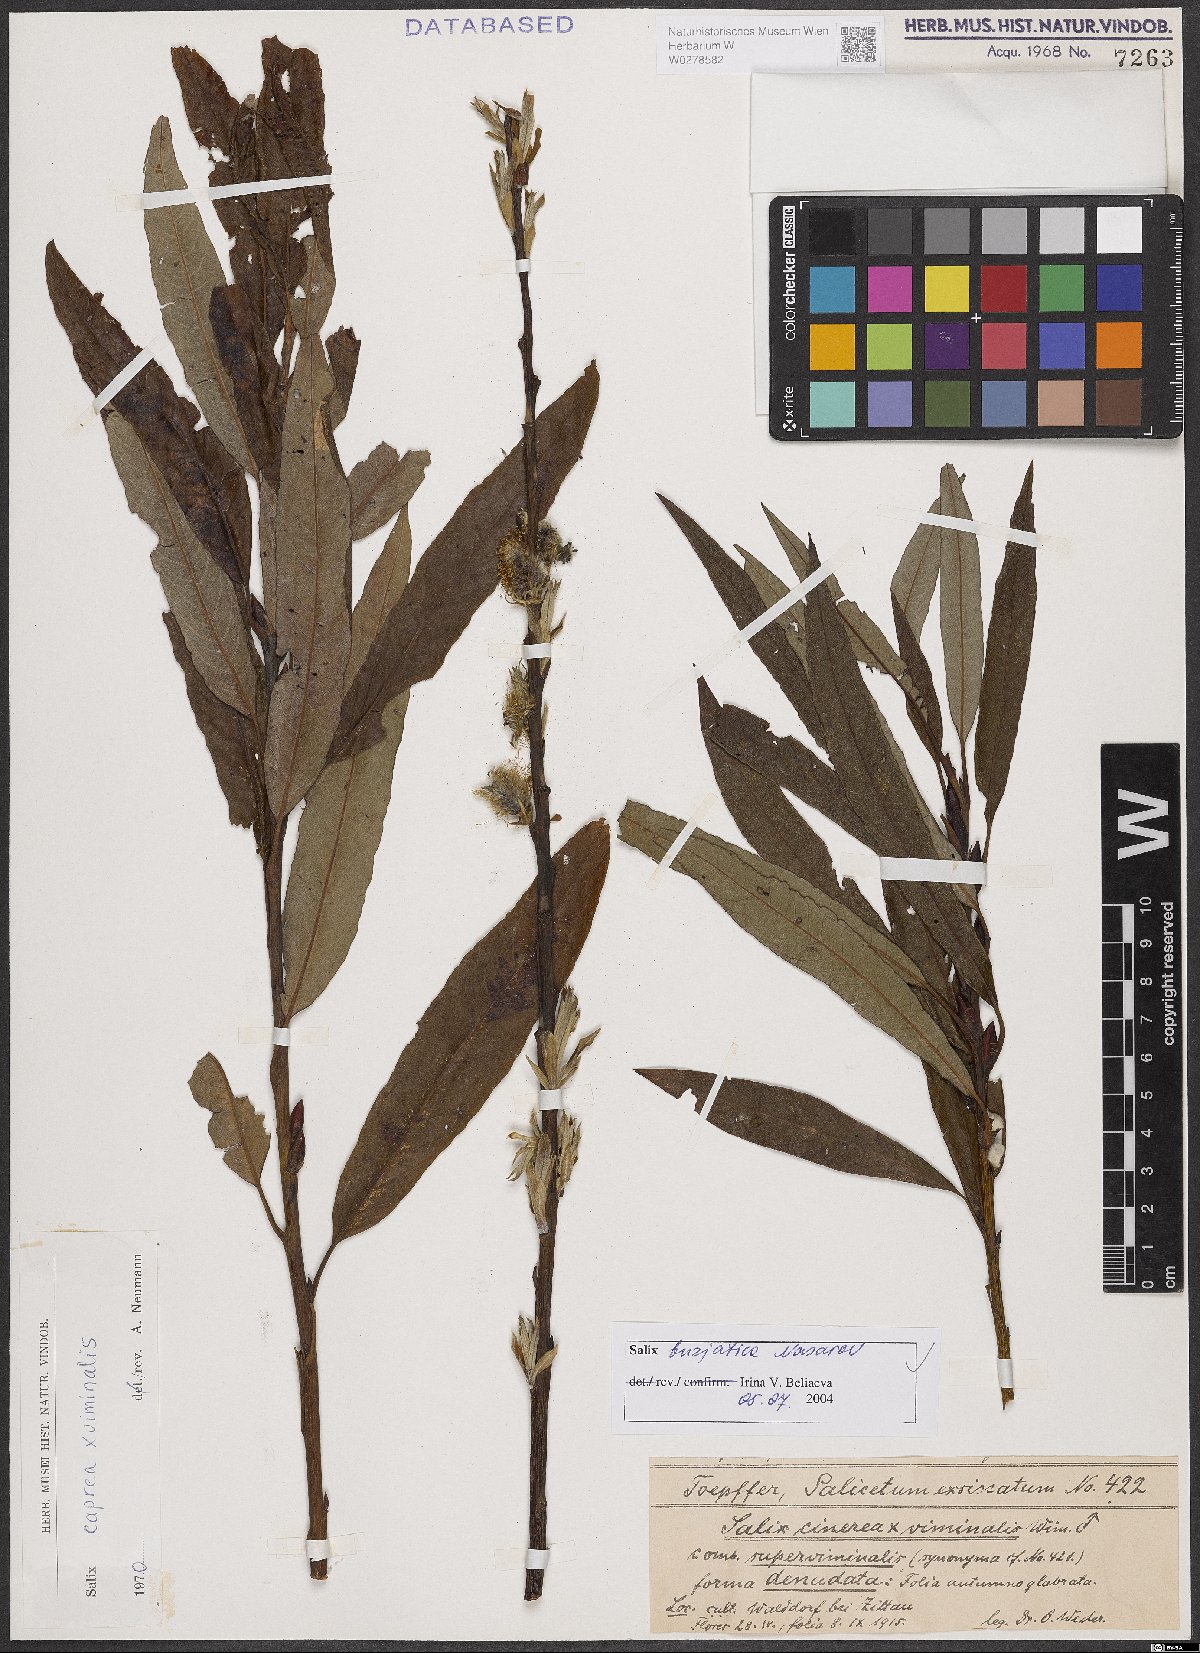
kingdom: Plantae
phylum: Tracheophyta
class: Magnoliopsida
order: Malpighiales
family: Salicaceae
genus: Salix
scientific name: Salix gmelinii
